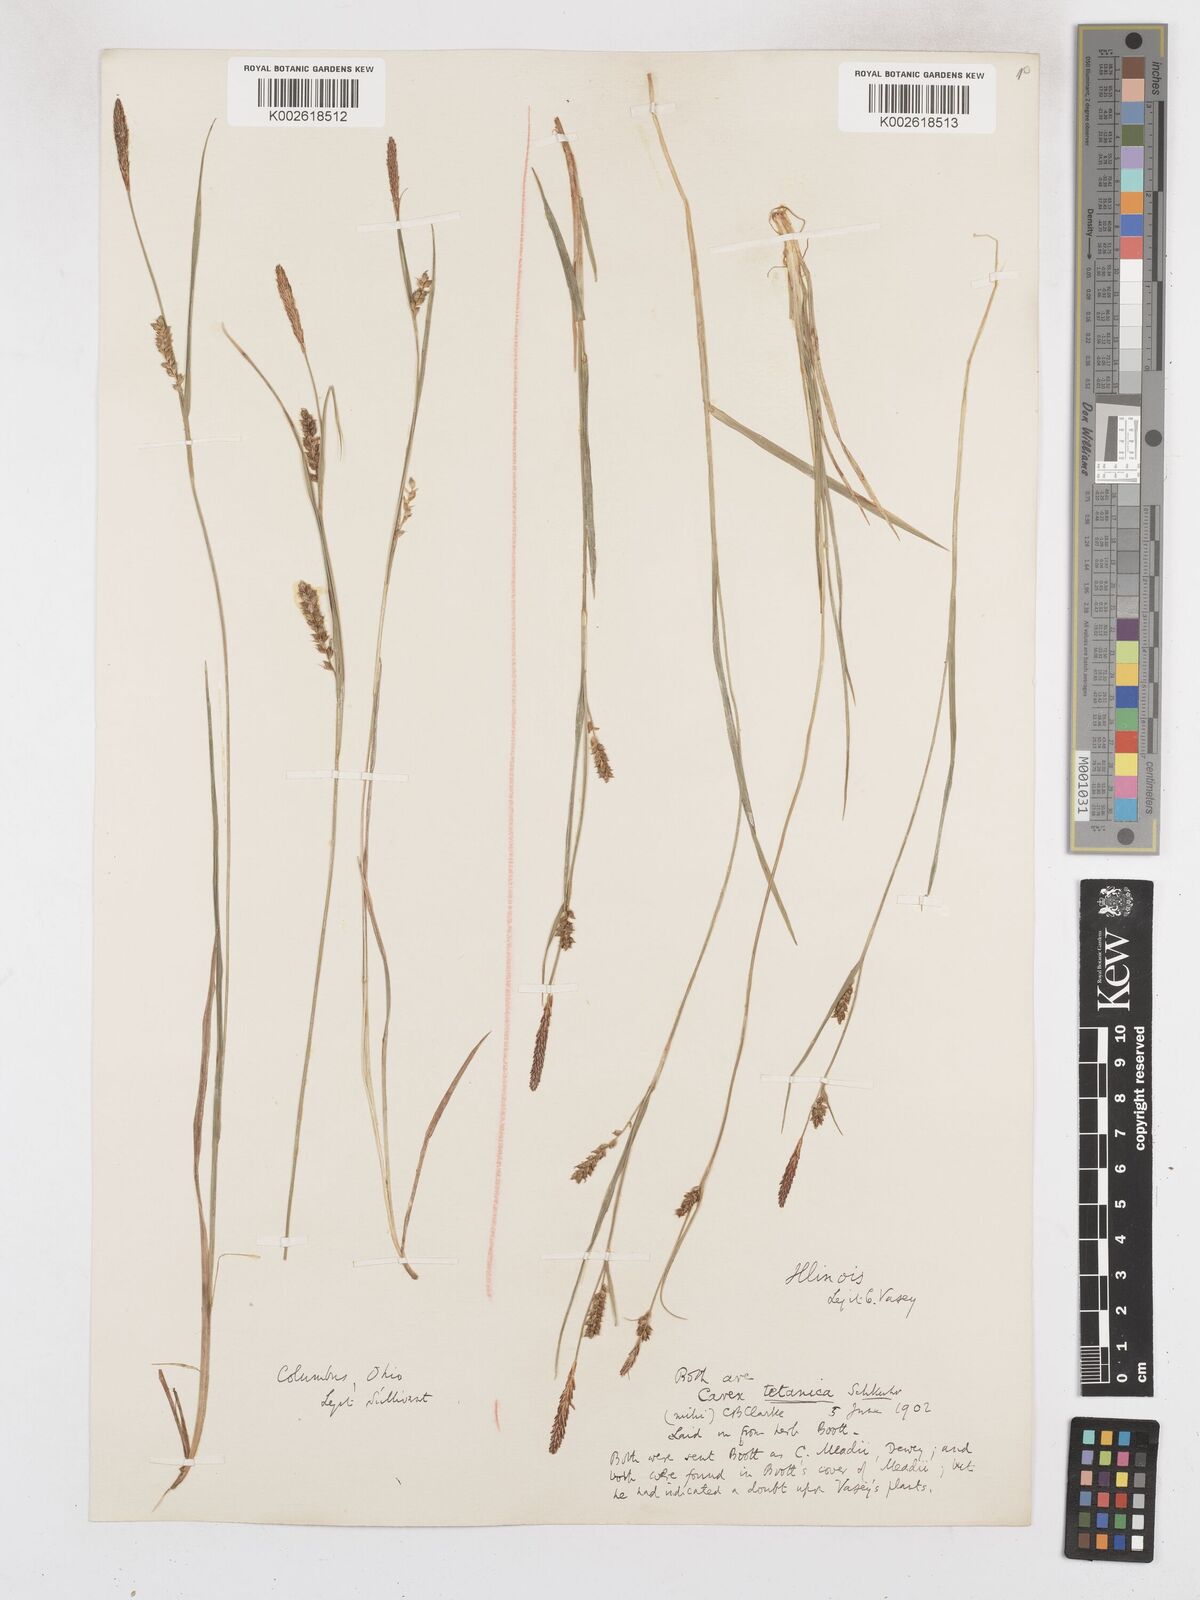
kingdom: Plantae
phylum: Tracheophyta
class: Liliopsida
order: Poales
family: Cyperaceae
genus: Carex
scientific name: Carex tetanica
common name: Rigid sedge
